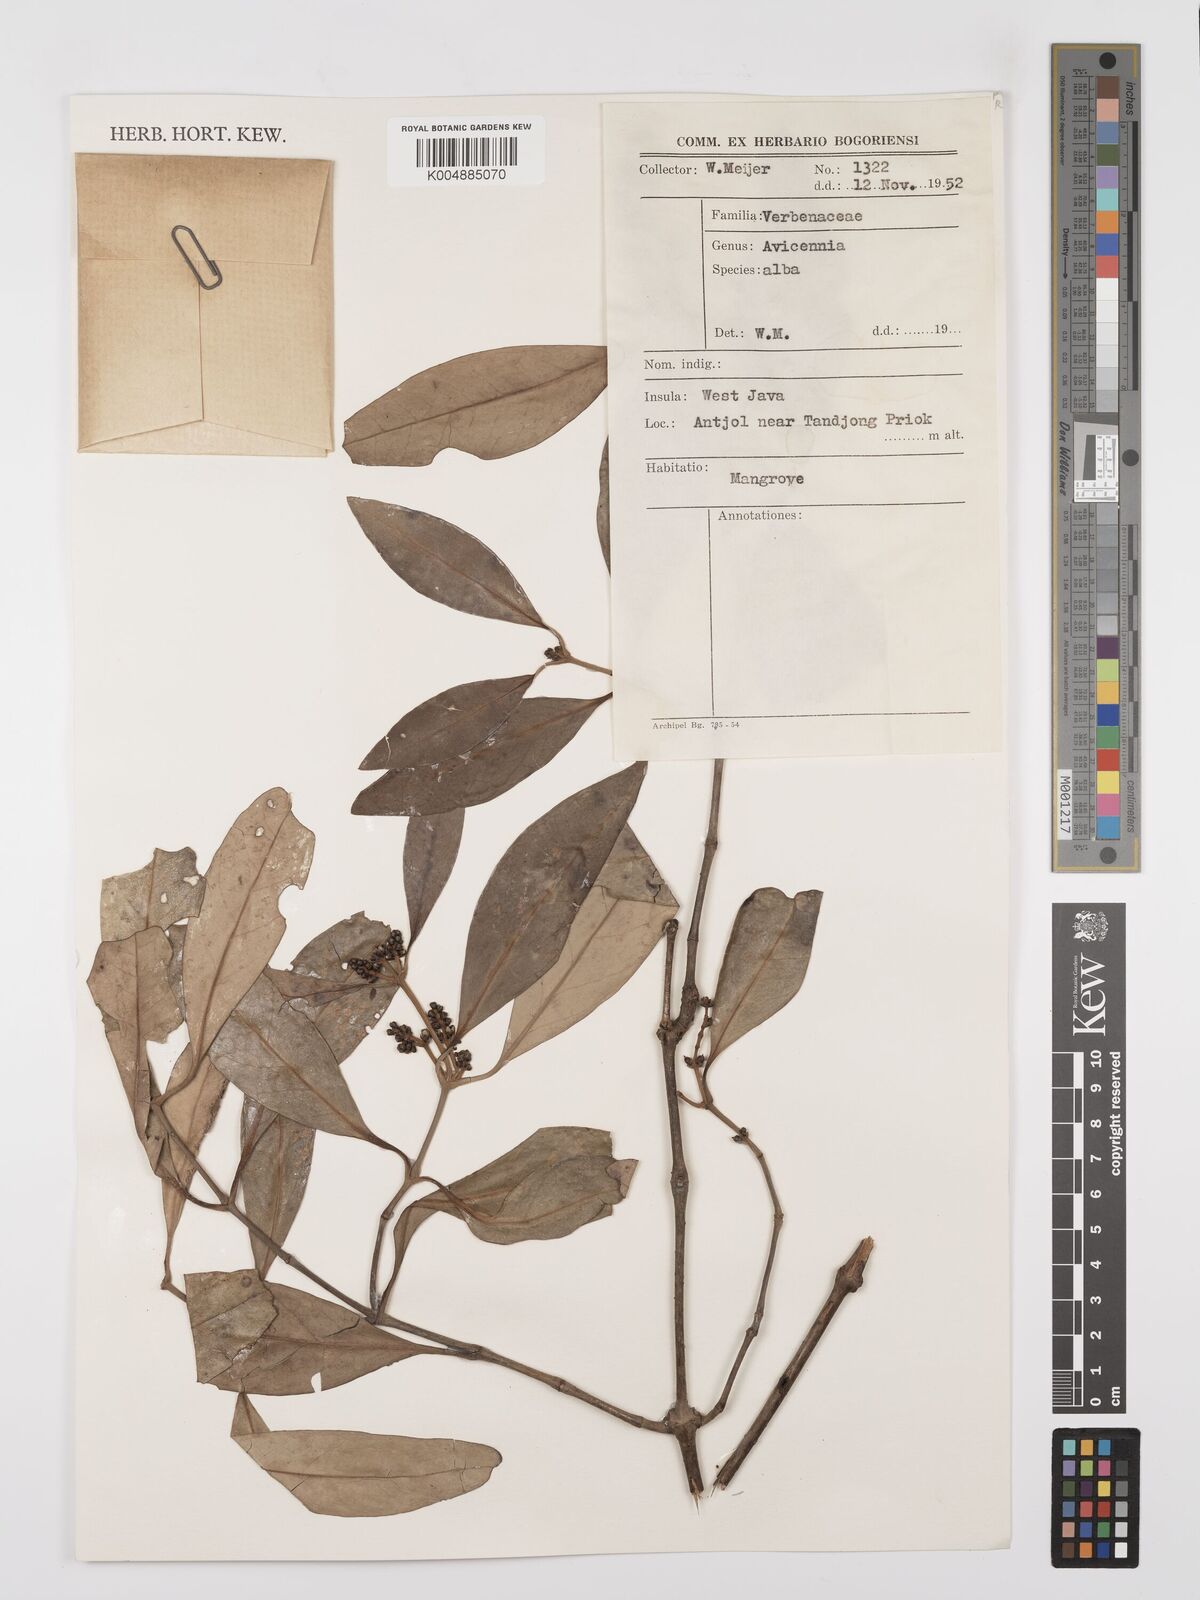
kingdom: Plantae
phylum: Tracheophyta
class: Magnoliopsida
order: Lamiales
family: Acanthaceae
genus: Avicennia
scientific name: Avicennia alba
